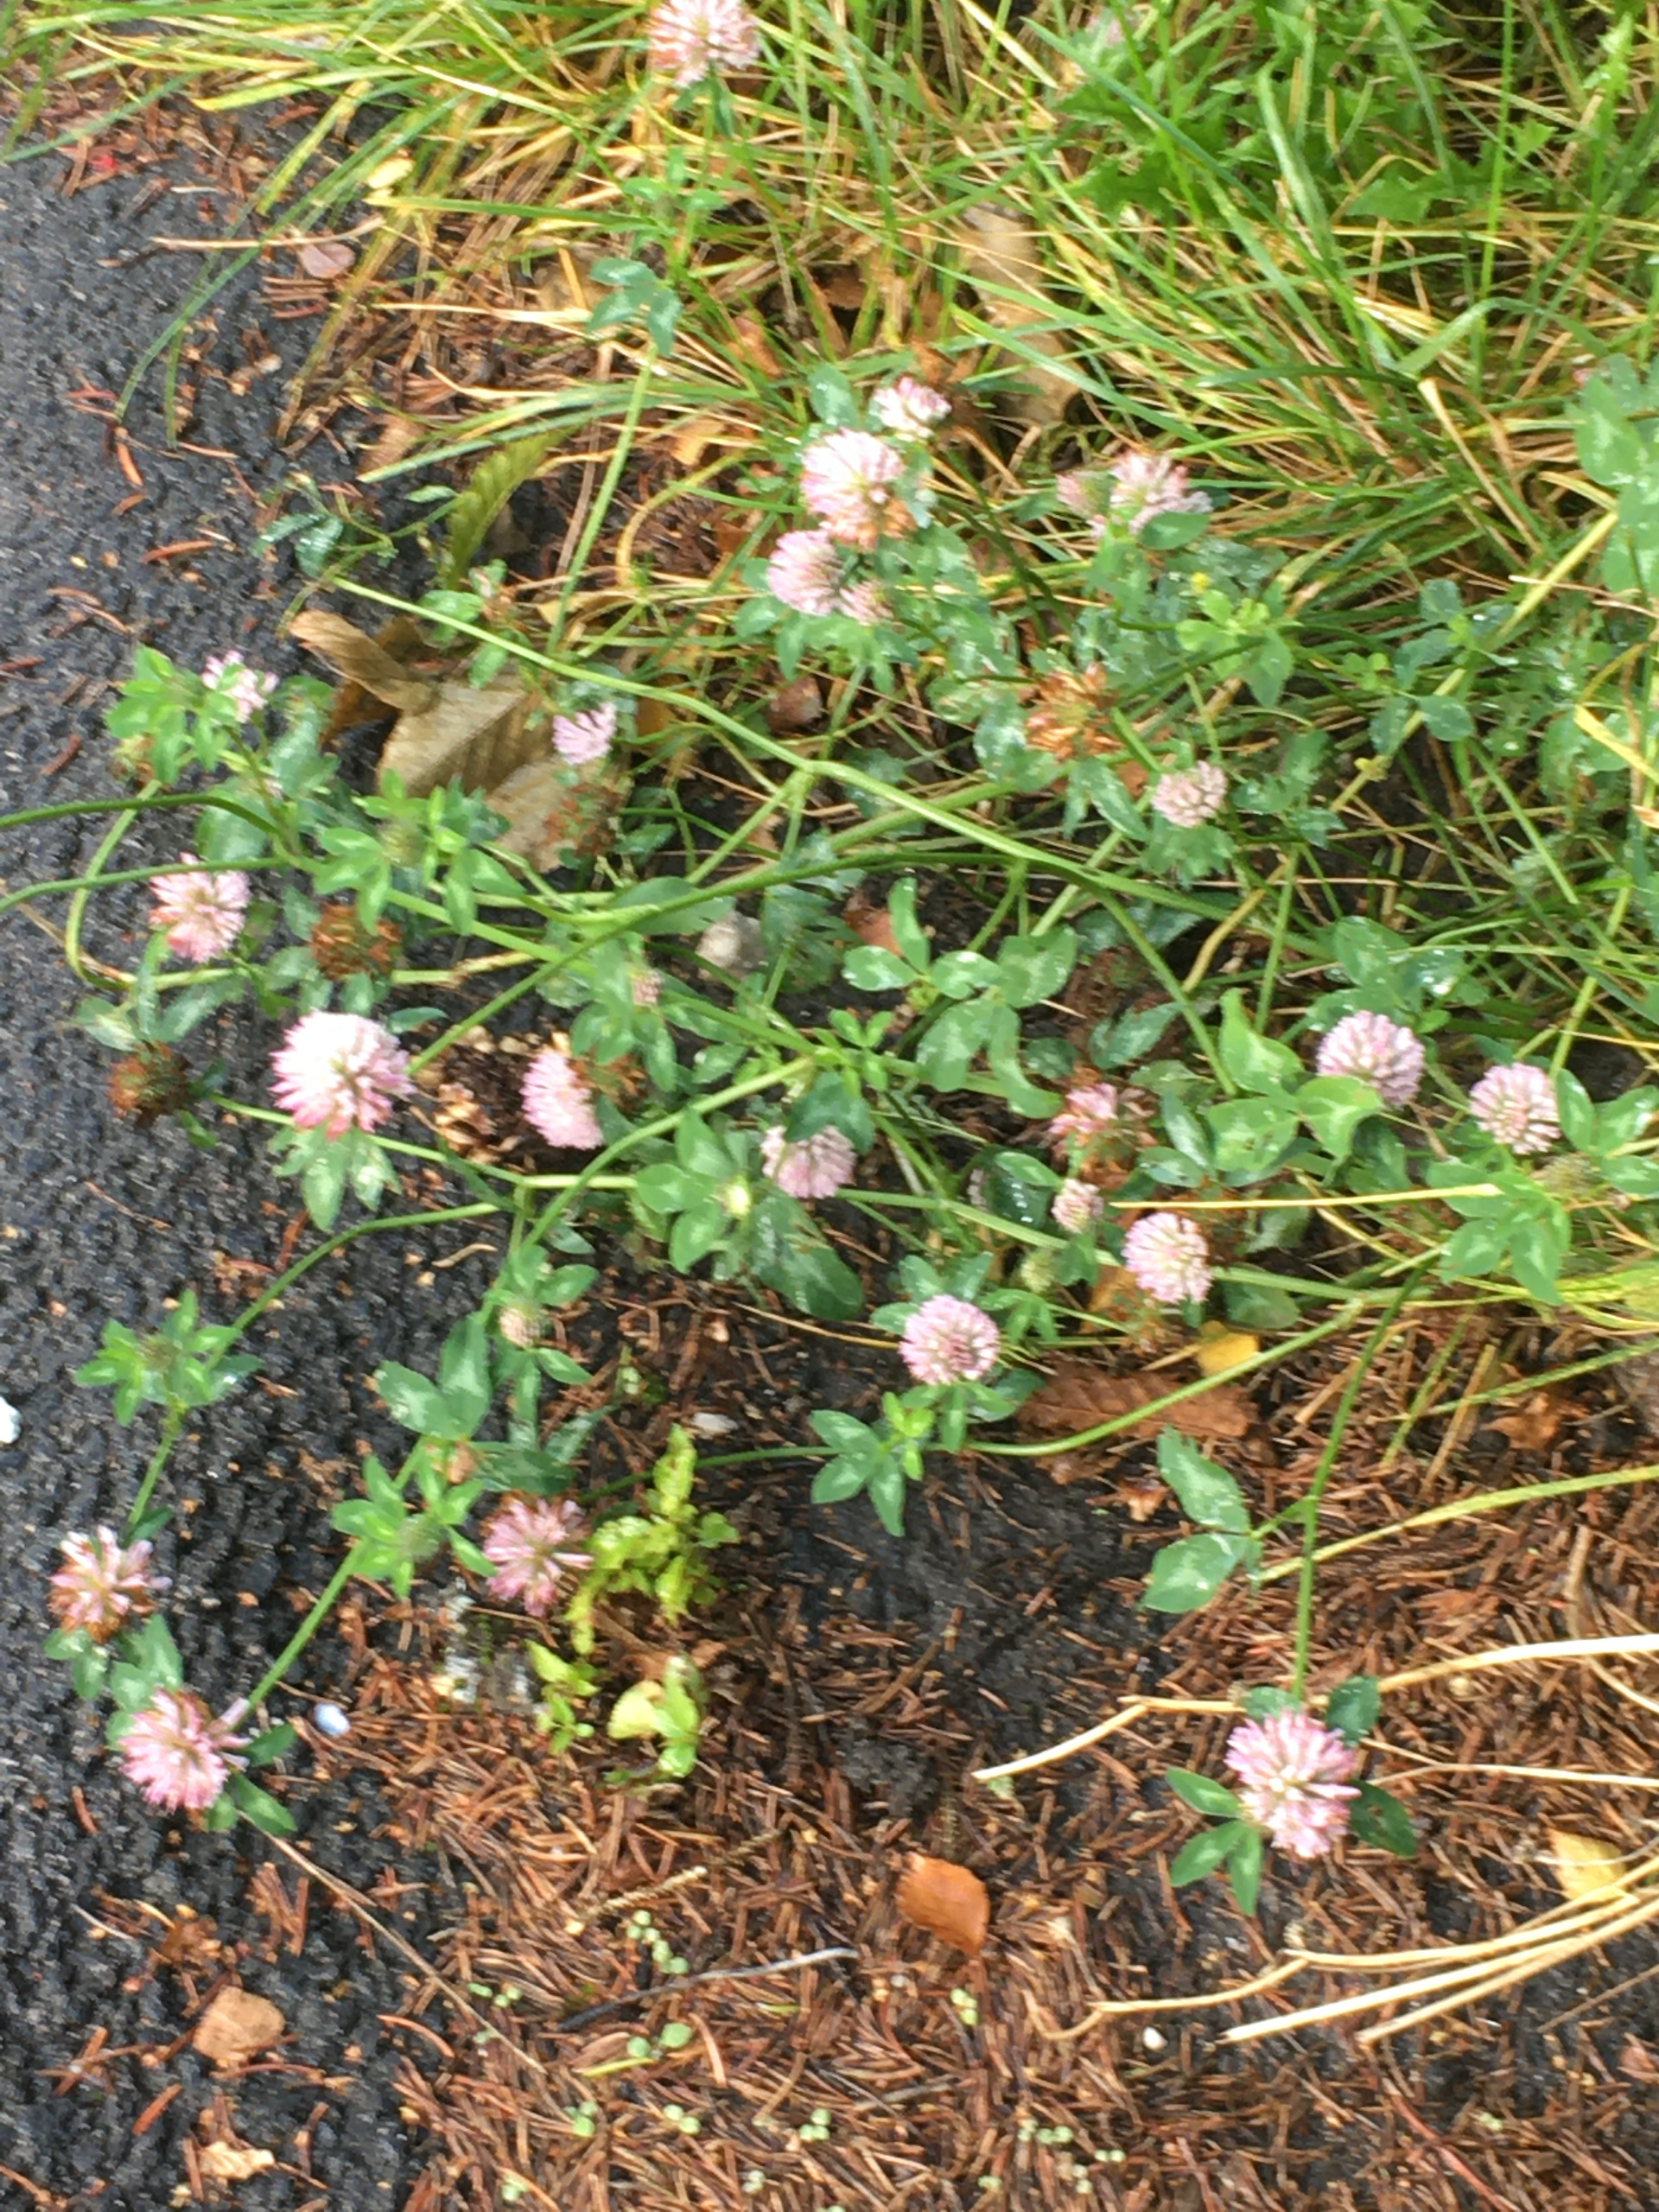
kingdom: Plantae
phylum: Tracheophyta
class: Magnoliopsida
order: Fabales
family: Fabaceae
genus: Trifolium
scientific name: Trifolium pratense
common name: Rød-kløver
